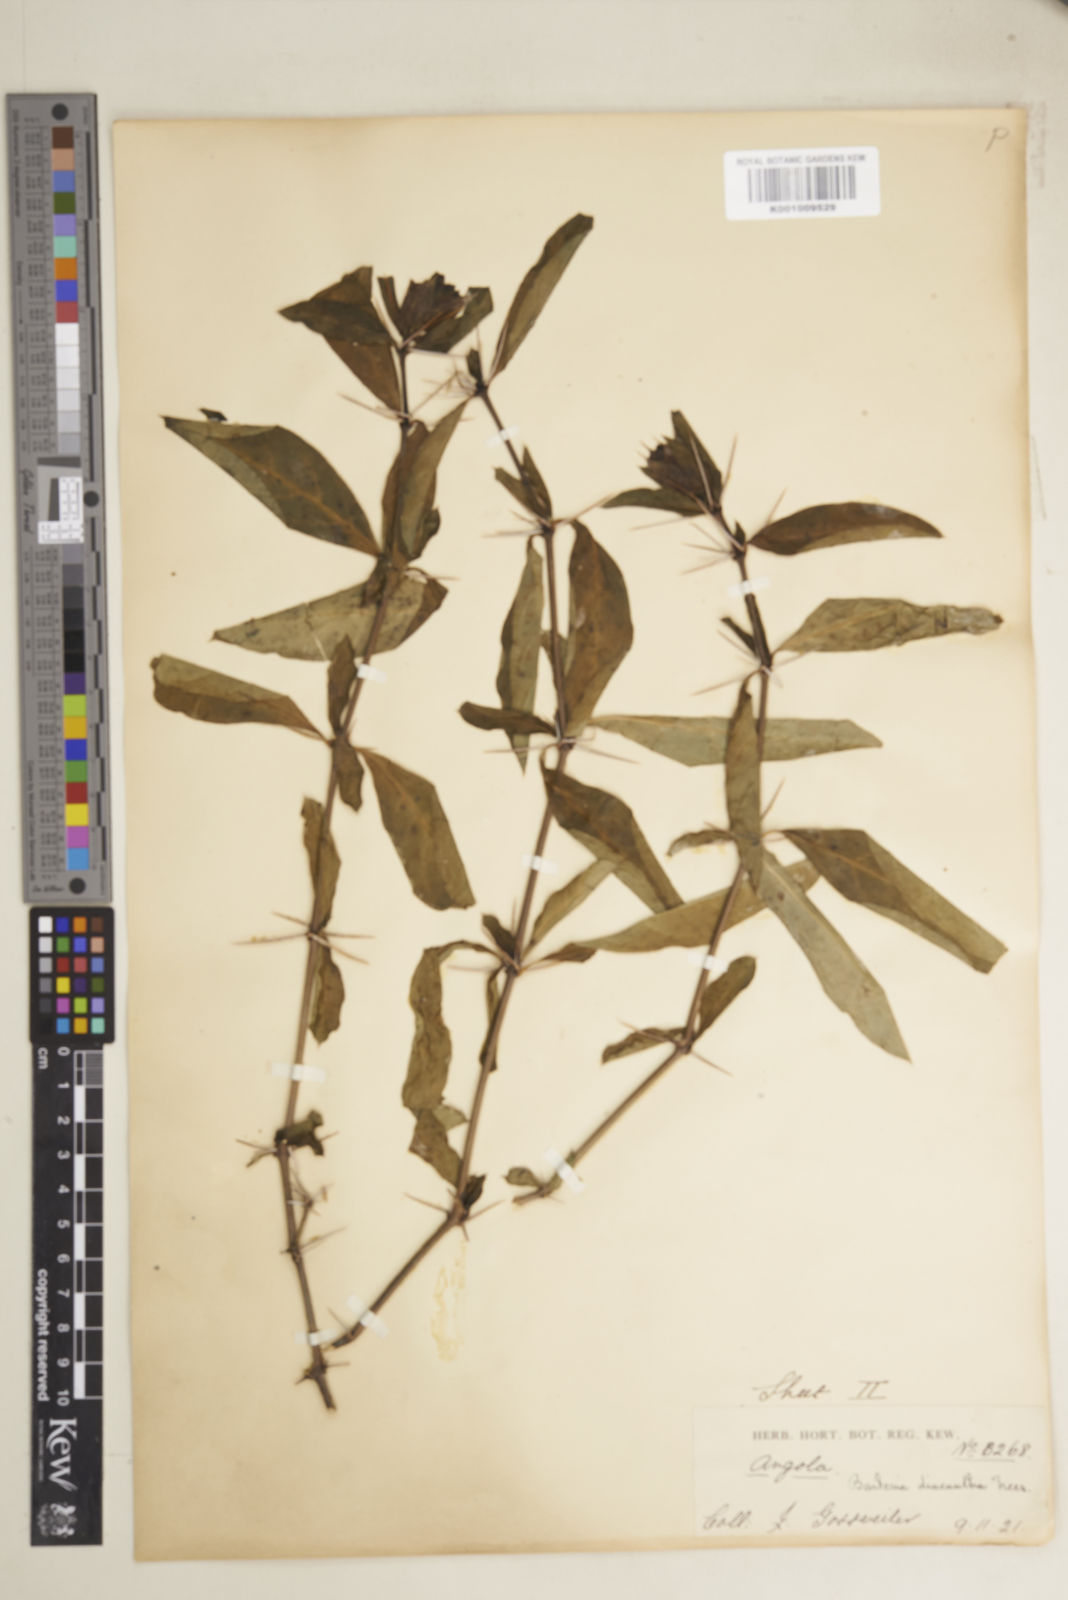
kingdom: Plantae
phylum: Tracheophyta
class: Magnoliopsida
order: Lamiales
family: Acanthaceae
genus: Barleria
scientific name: Barleria
